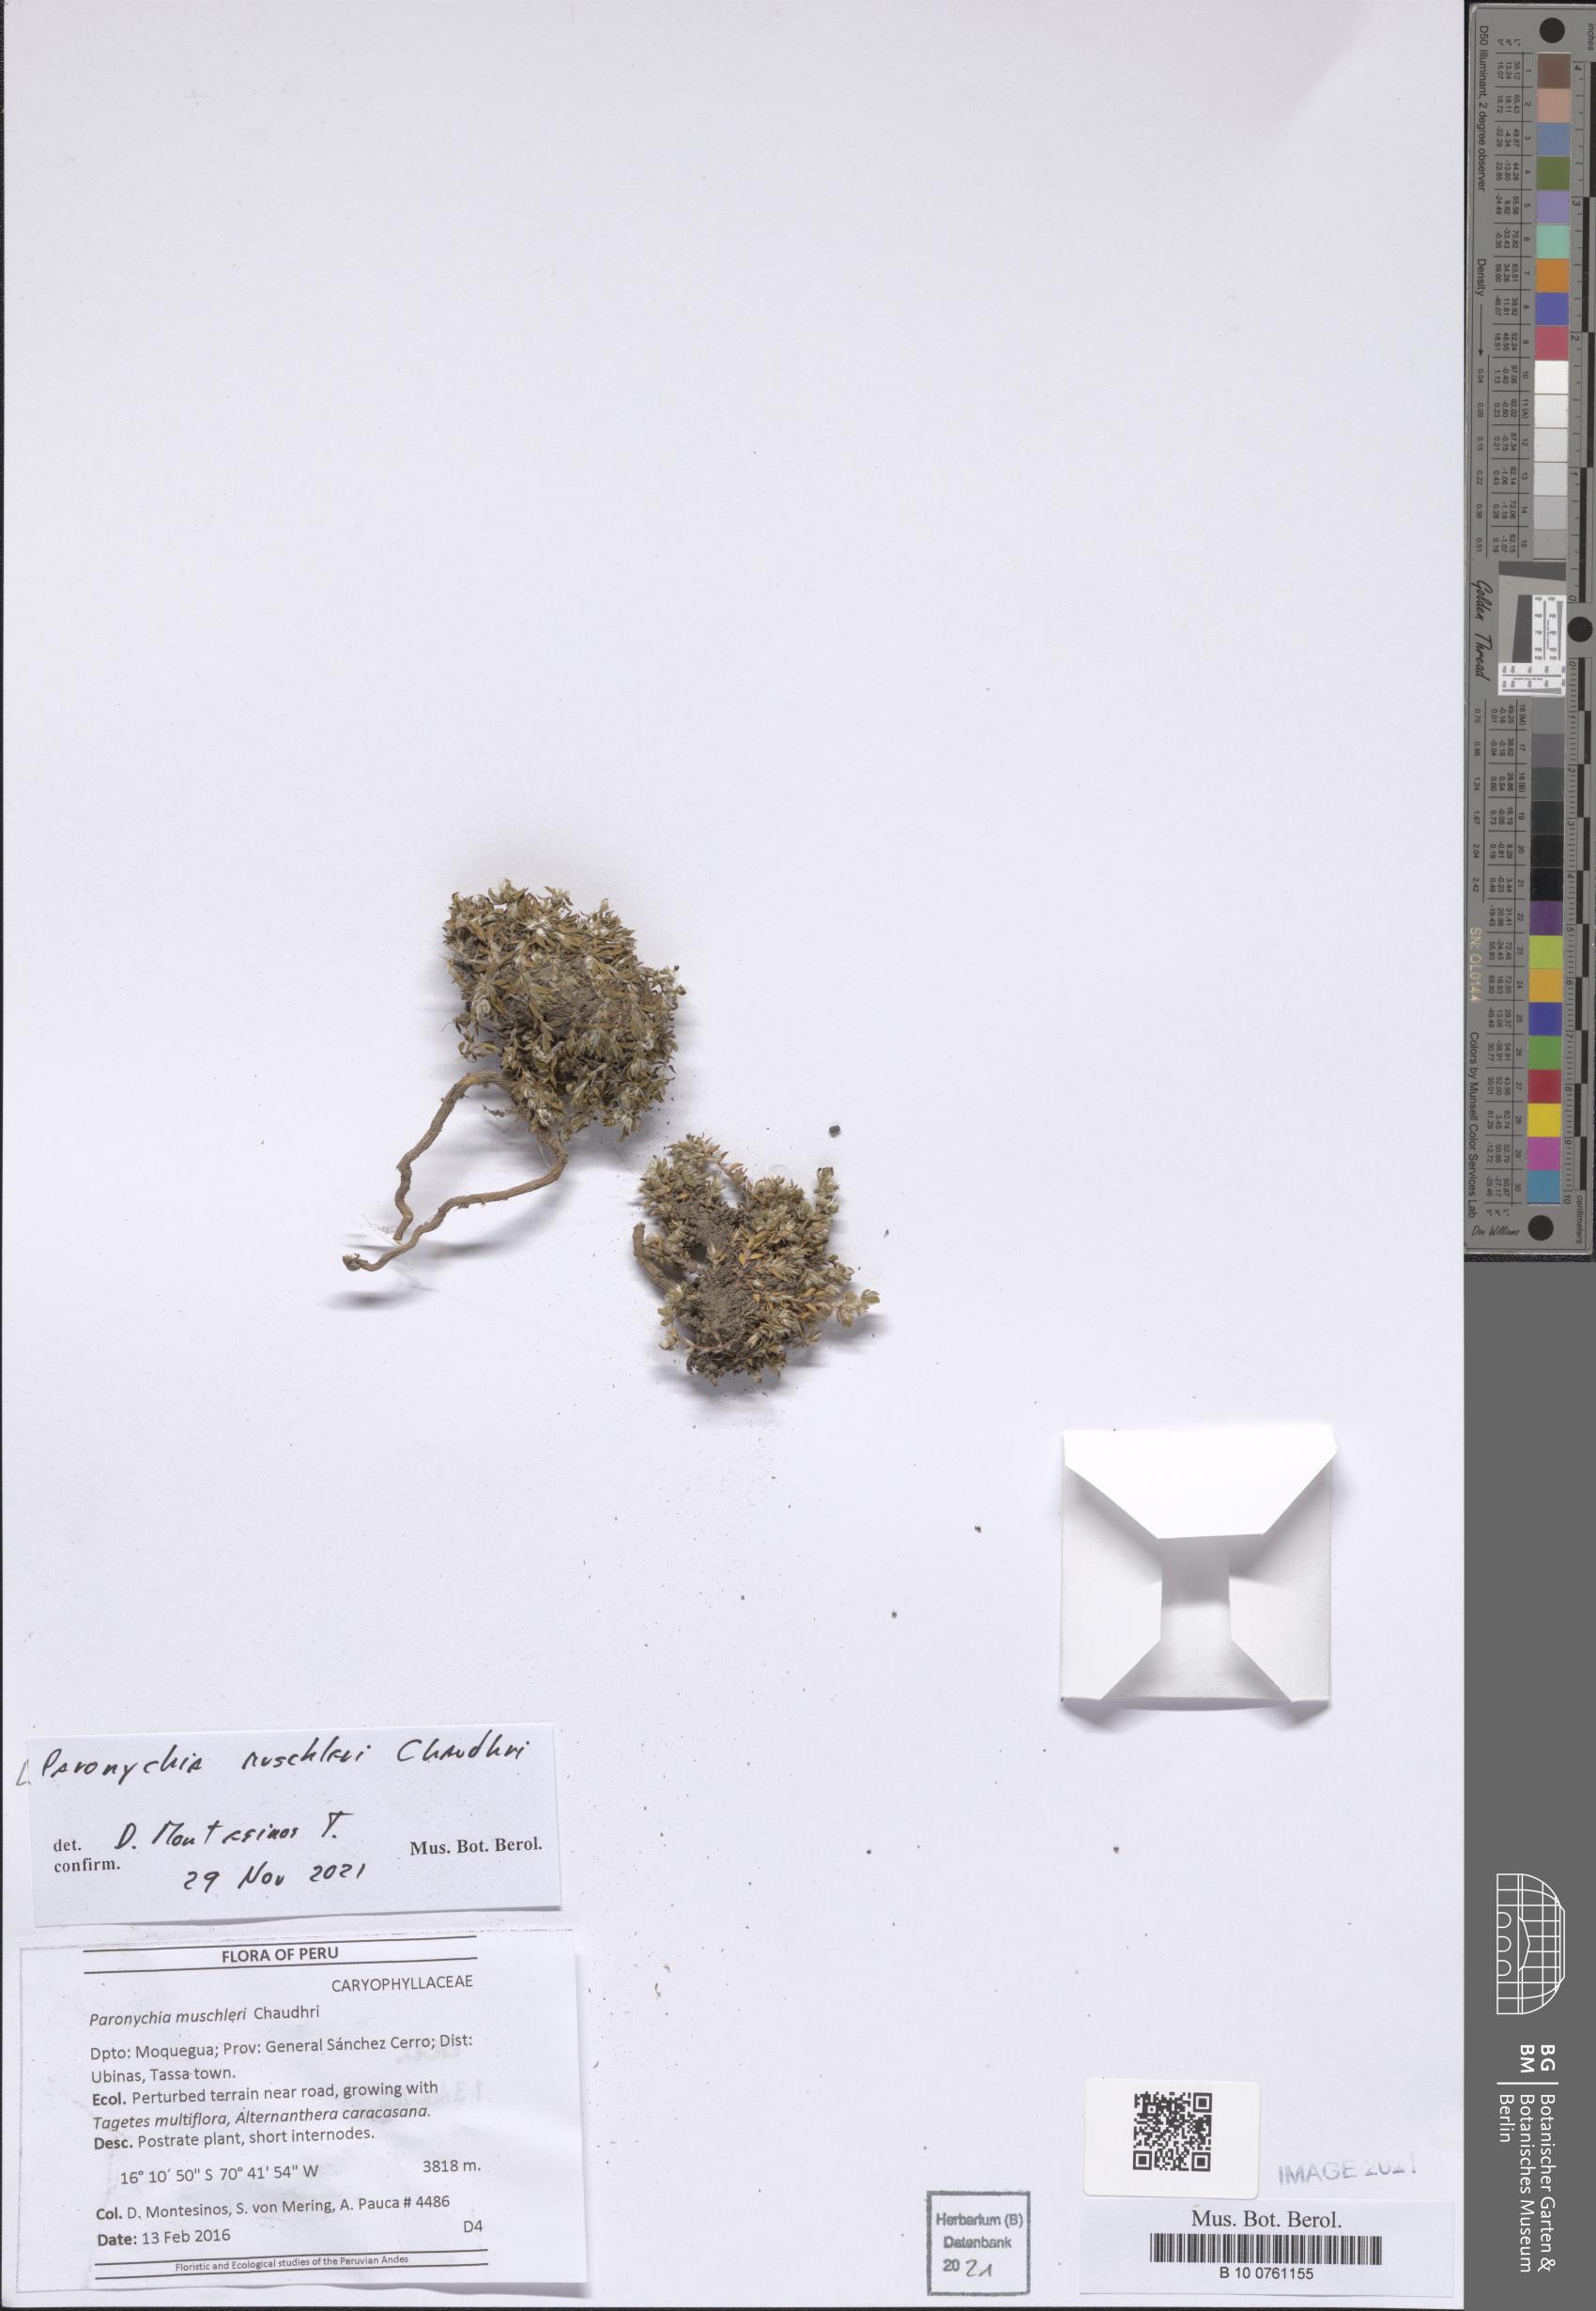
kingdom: Plantae
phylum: Tracheophyta
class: Magnoliopsida
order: Caryophyllales
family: Caryophyllaceae
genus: Paronychia
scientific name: Paronychia muschleri
